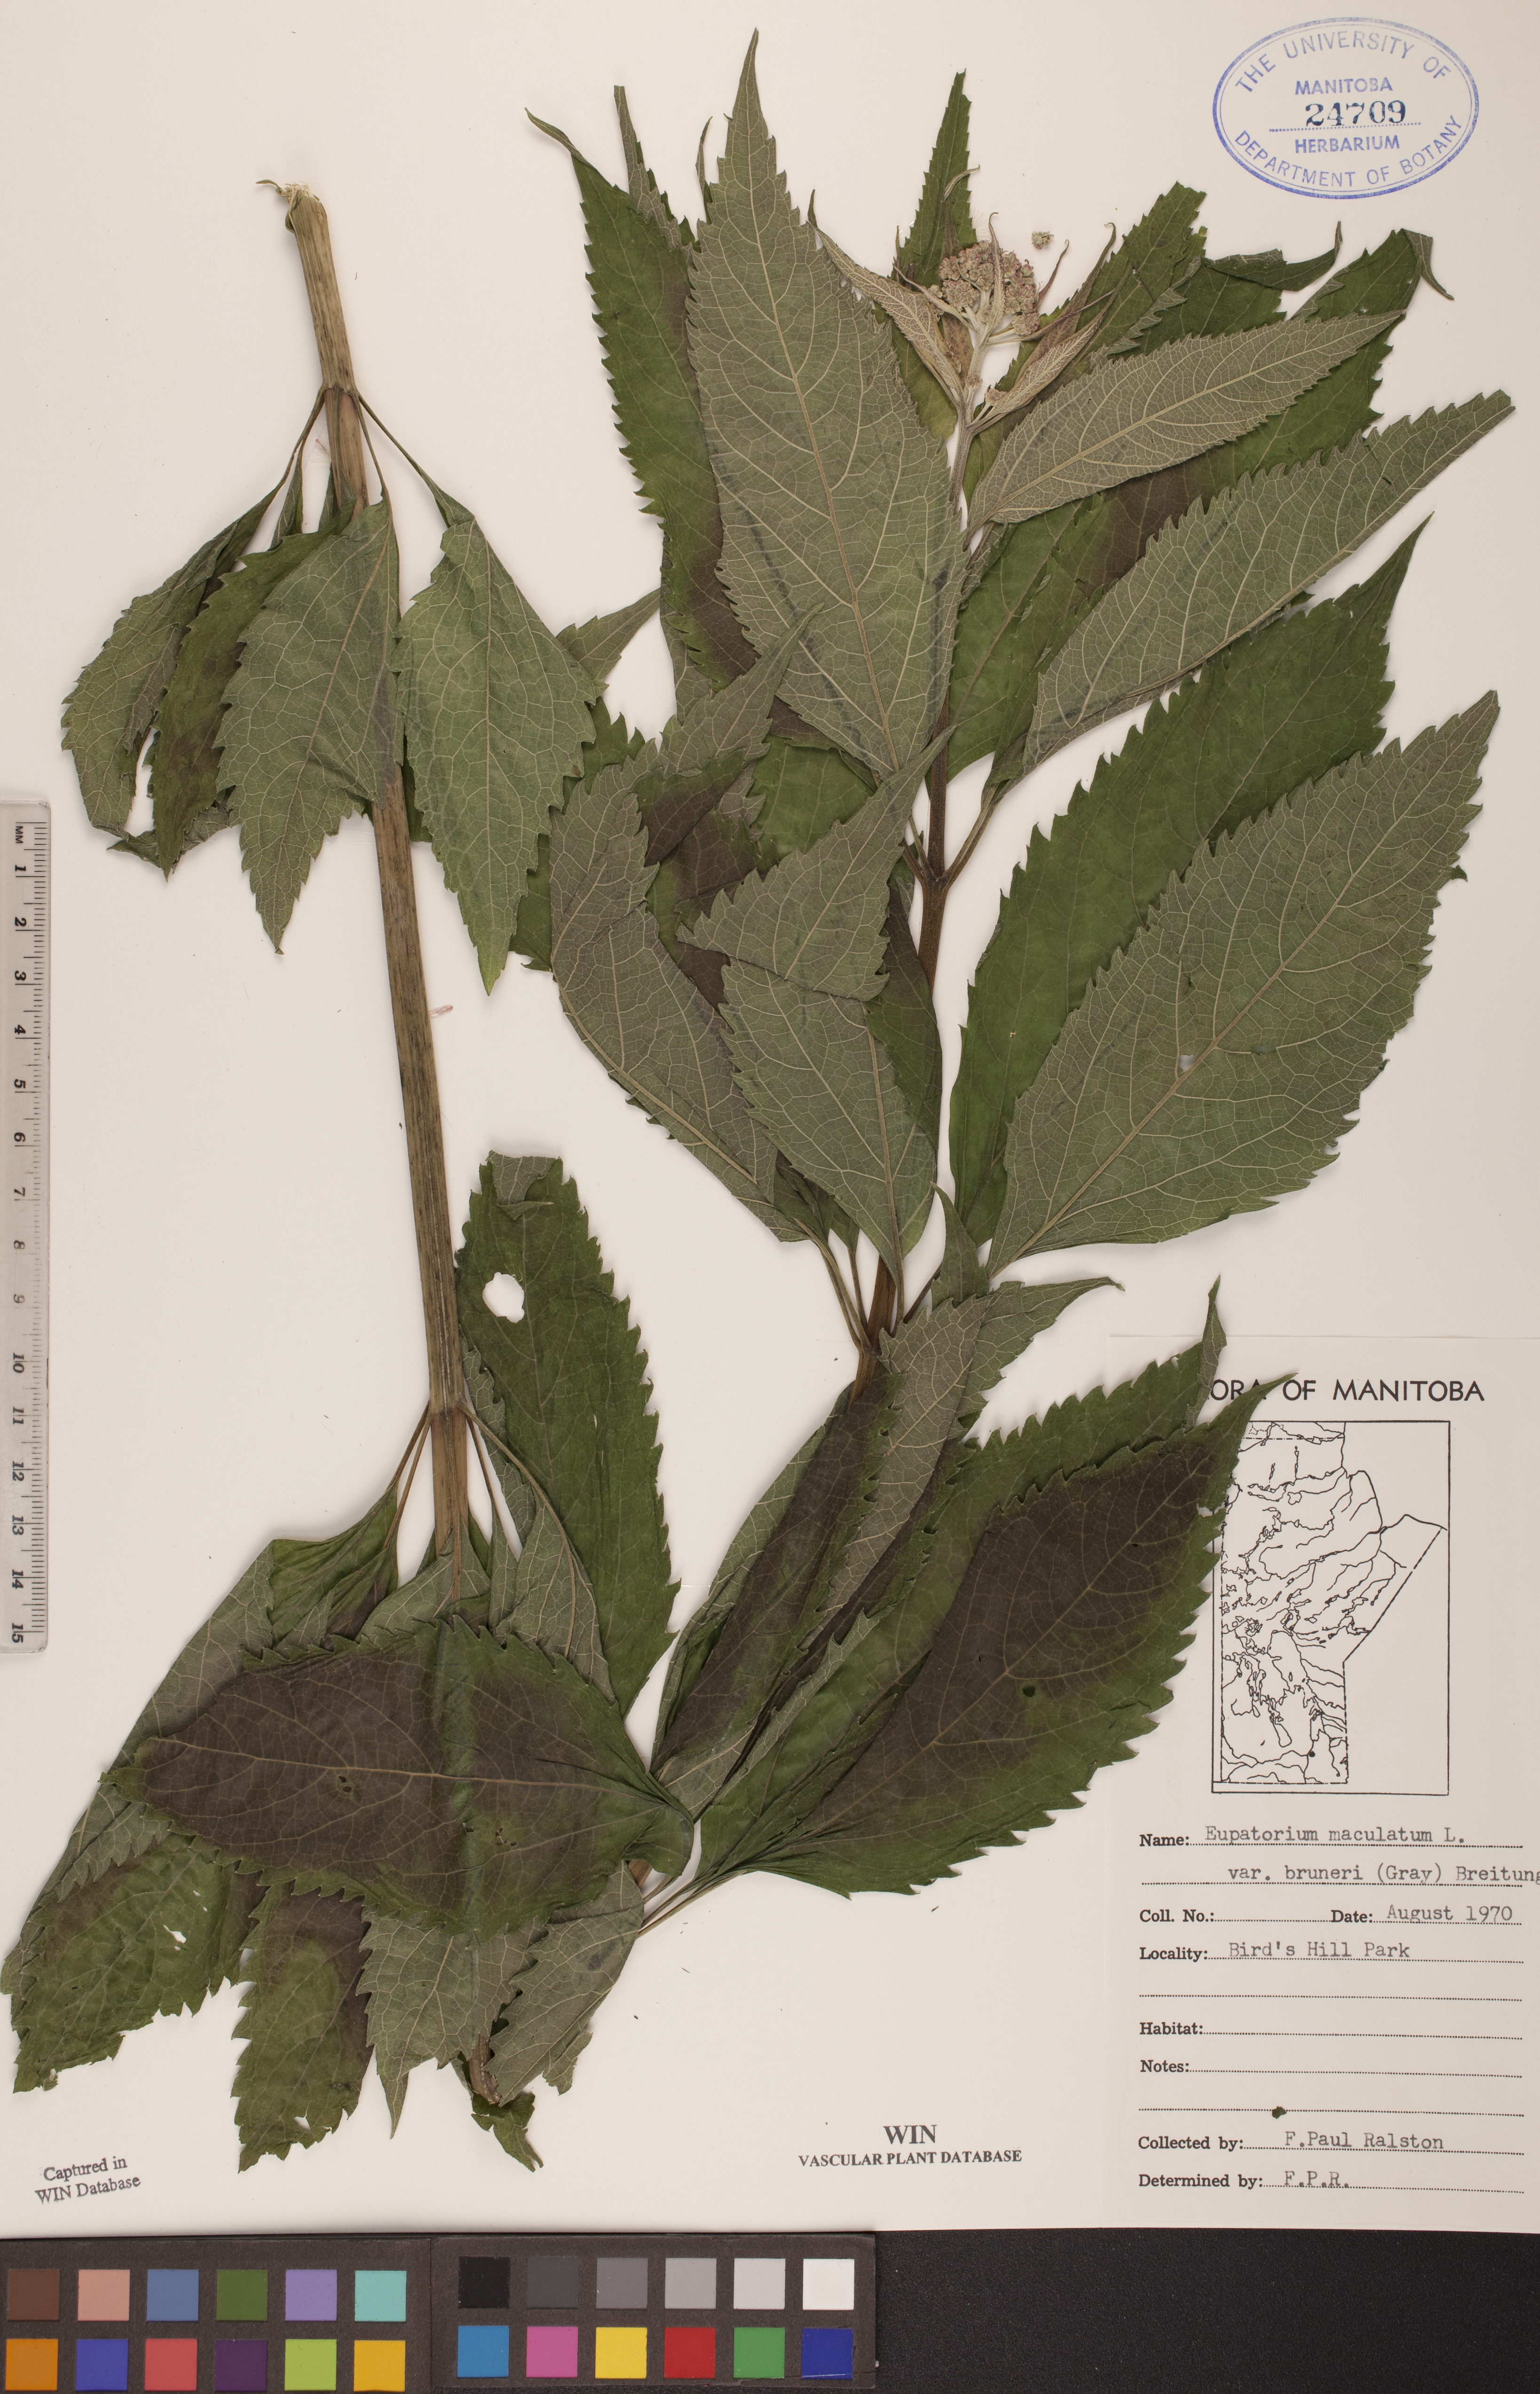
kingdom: Plantae
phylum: Tracheophyta
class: Magnoliopsida
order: Asterales
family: Asteraceae
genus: Eutrochium
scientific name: Eutrochium maculatum
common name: Spotted joe pye weed
